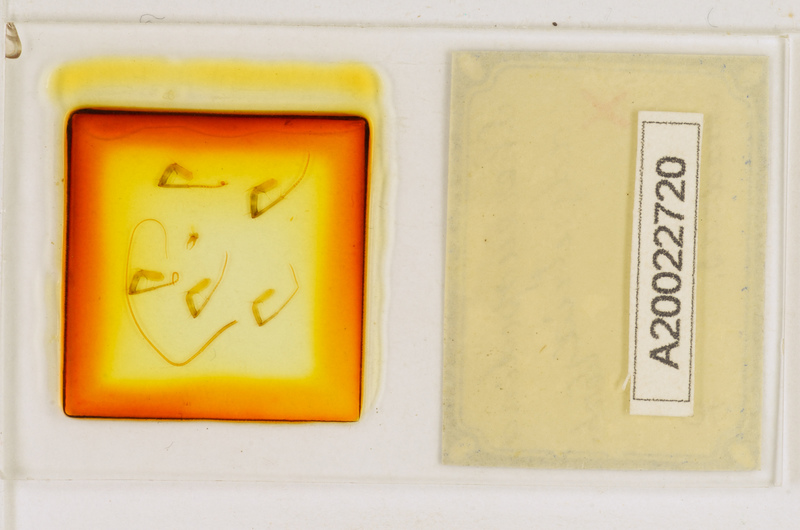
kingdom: Animalia
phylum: Arthropoda
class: Chilopoda
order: Scutigeromorpha
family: Scutigeridae
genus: Thereuopodina
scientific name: Thereuopodina adjutrix
